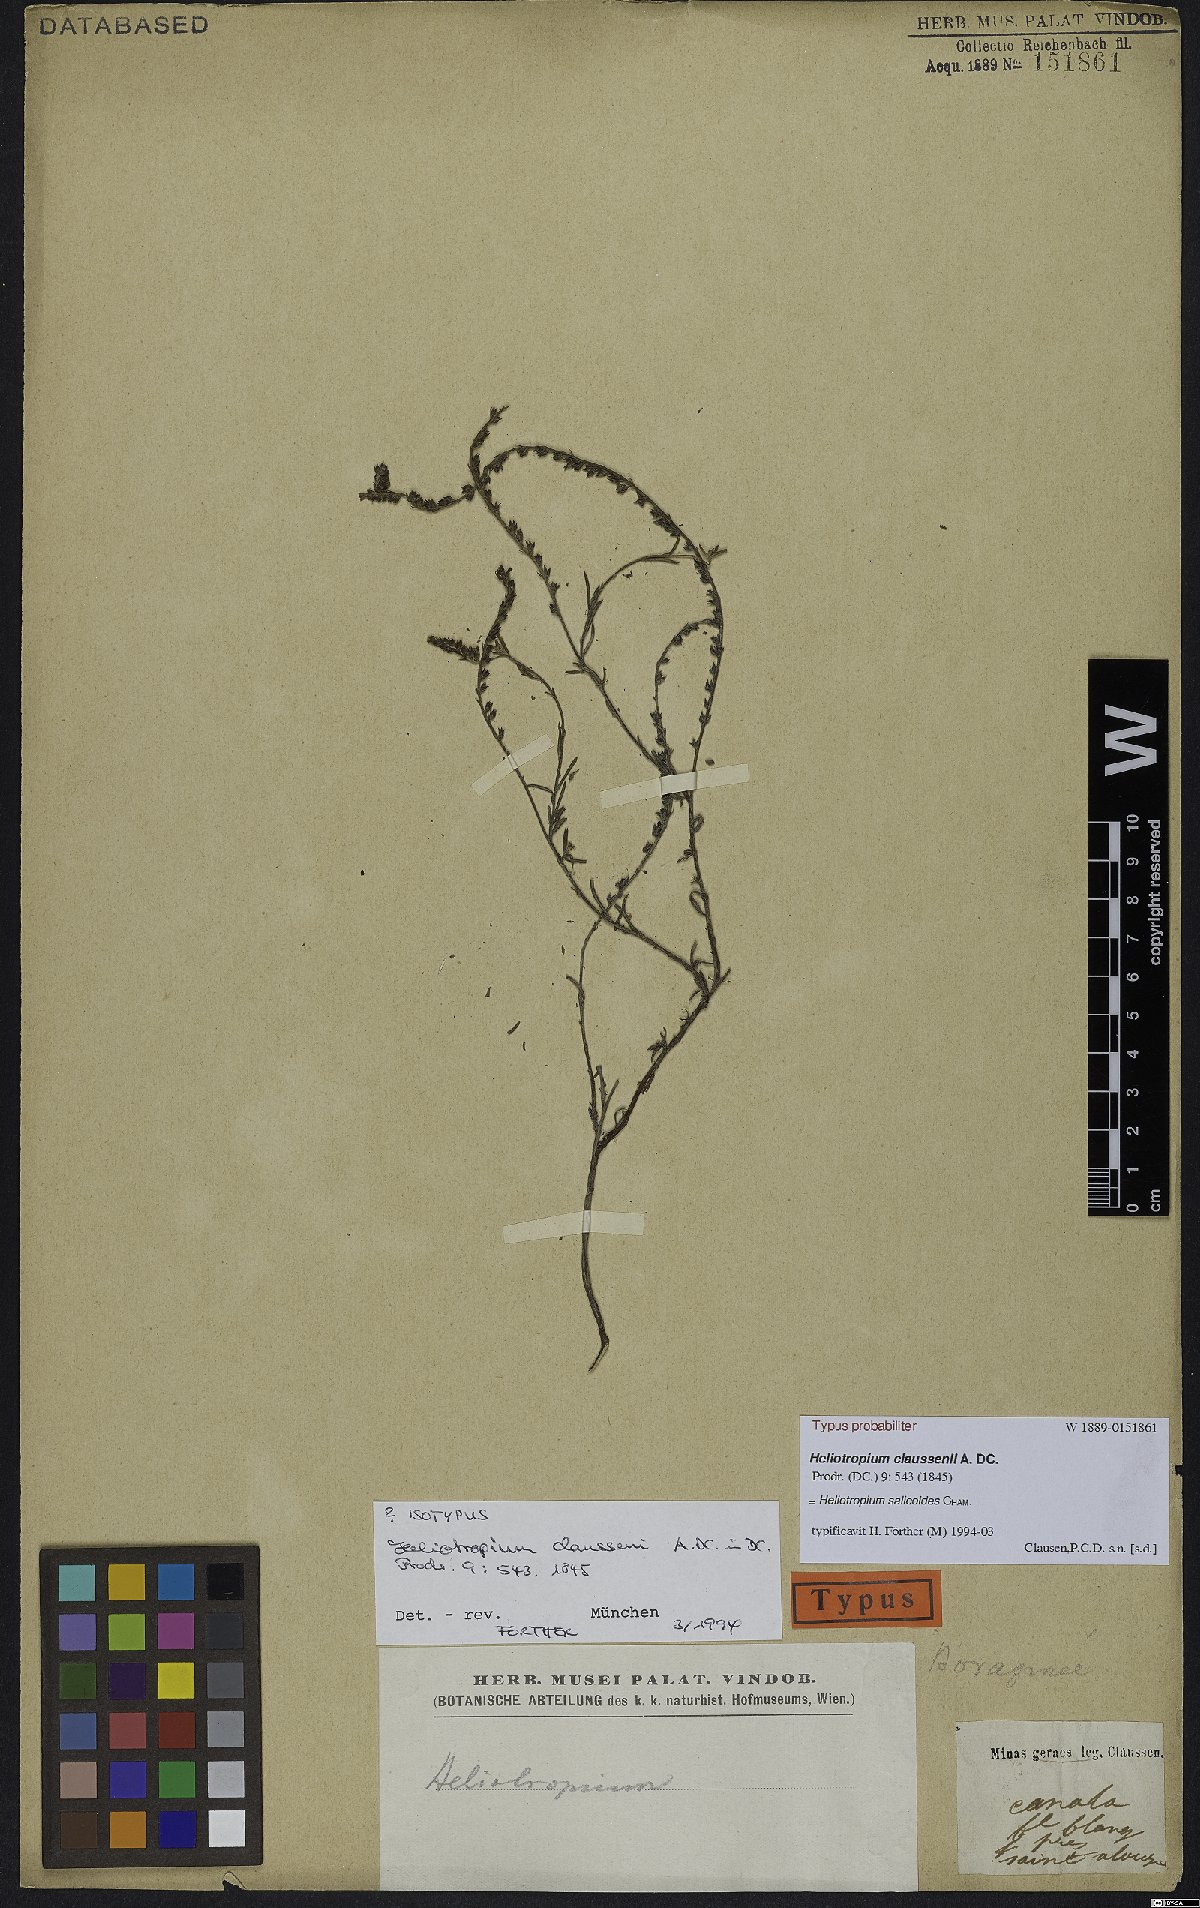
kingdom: Plantae
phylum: Tracheophyta
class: Magnoliopsida
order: Boraginales
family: Heliotropiaceae
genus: Euploca
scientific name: Euploca salicoides
